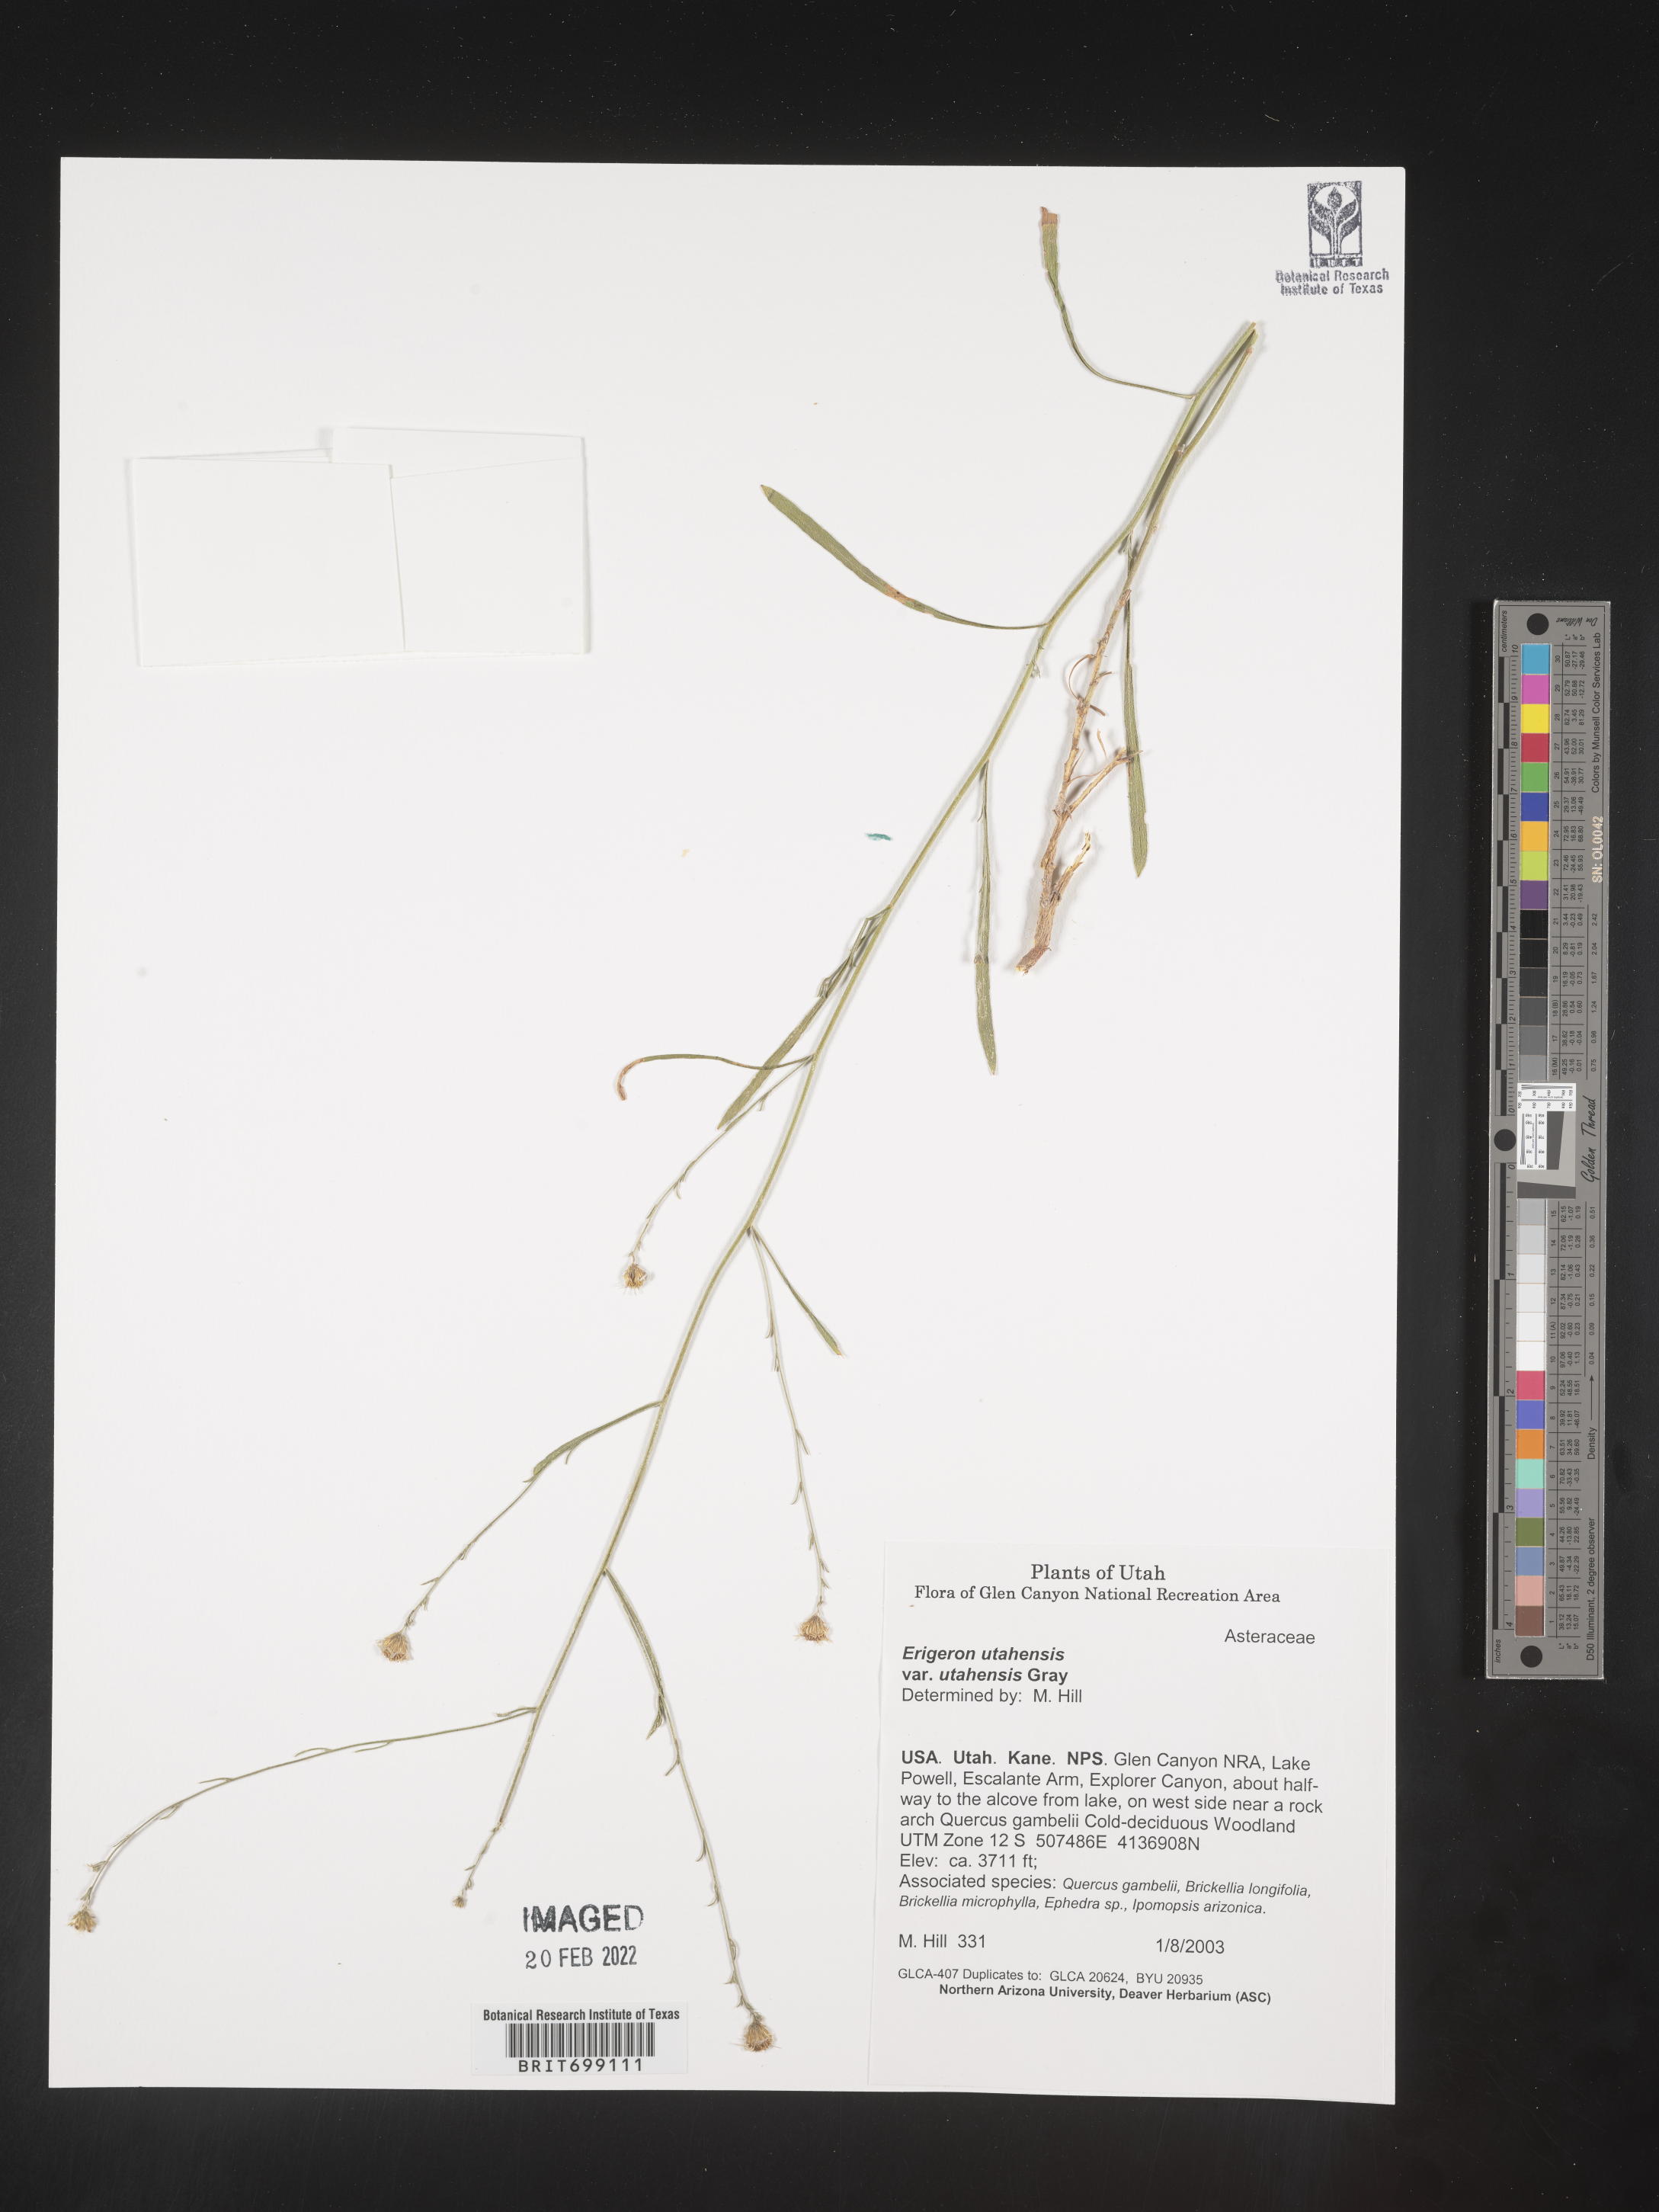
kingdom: Plantae
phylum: Tracheophyta
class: Magnoliopsida
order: Asterales
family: Asteraceae
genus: Erigeron
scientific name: Erigeron sparsifolius
